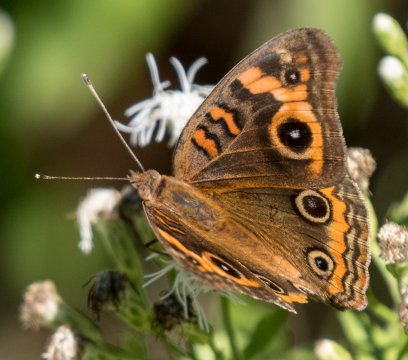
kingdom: Animalia
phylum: Arthropoda
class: Insecta
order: Lepidoptera
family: Nymphalidae
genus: Junonia
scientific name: Junonia evarete
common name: Mangrove Buckeye
